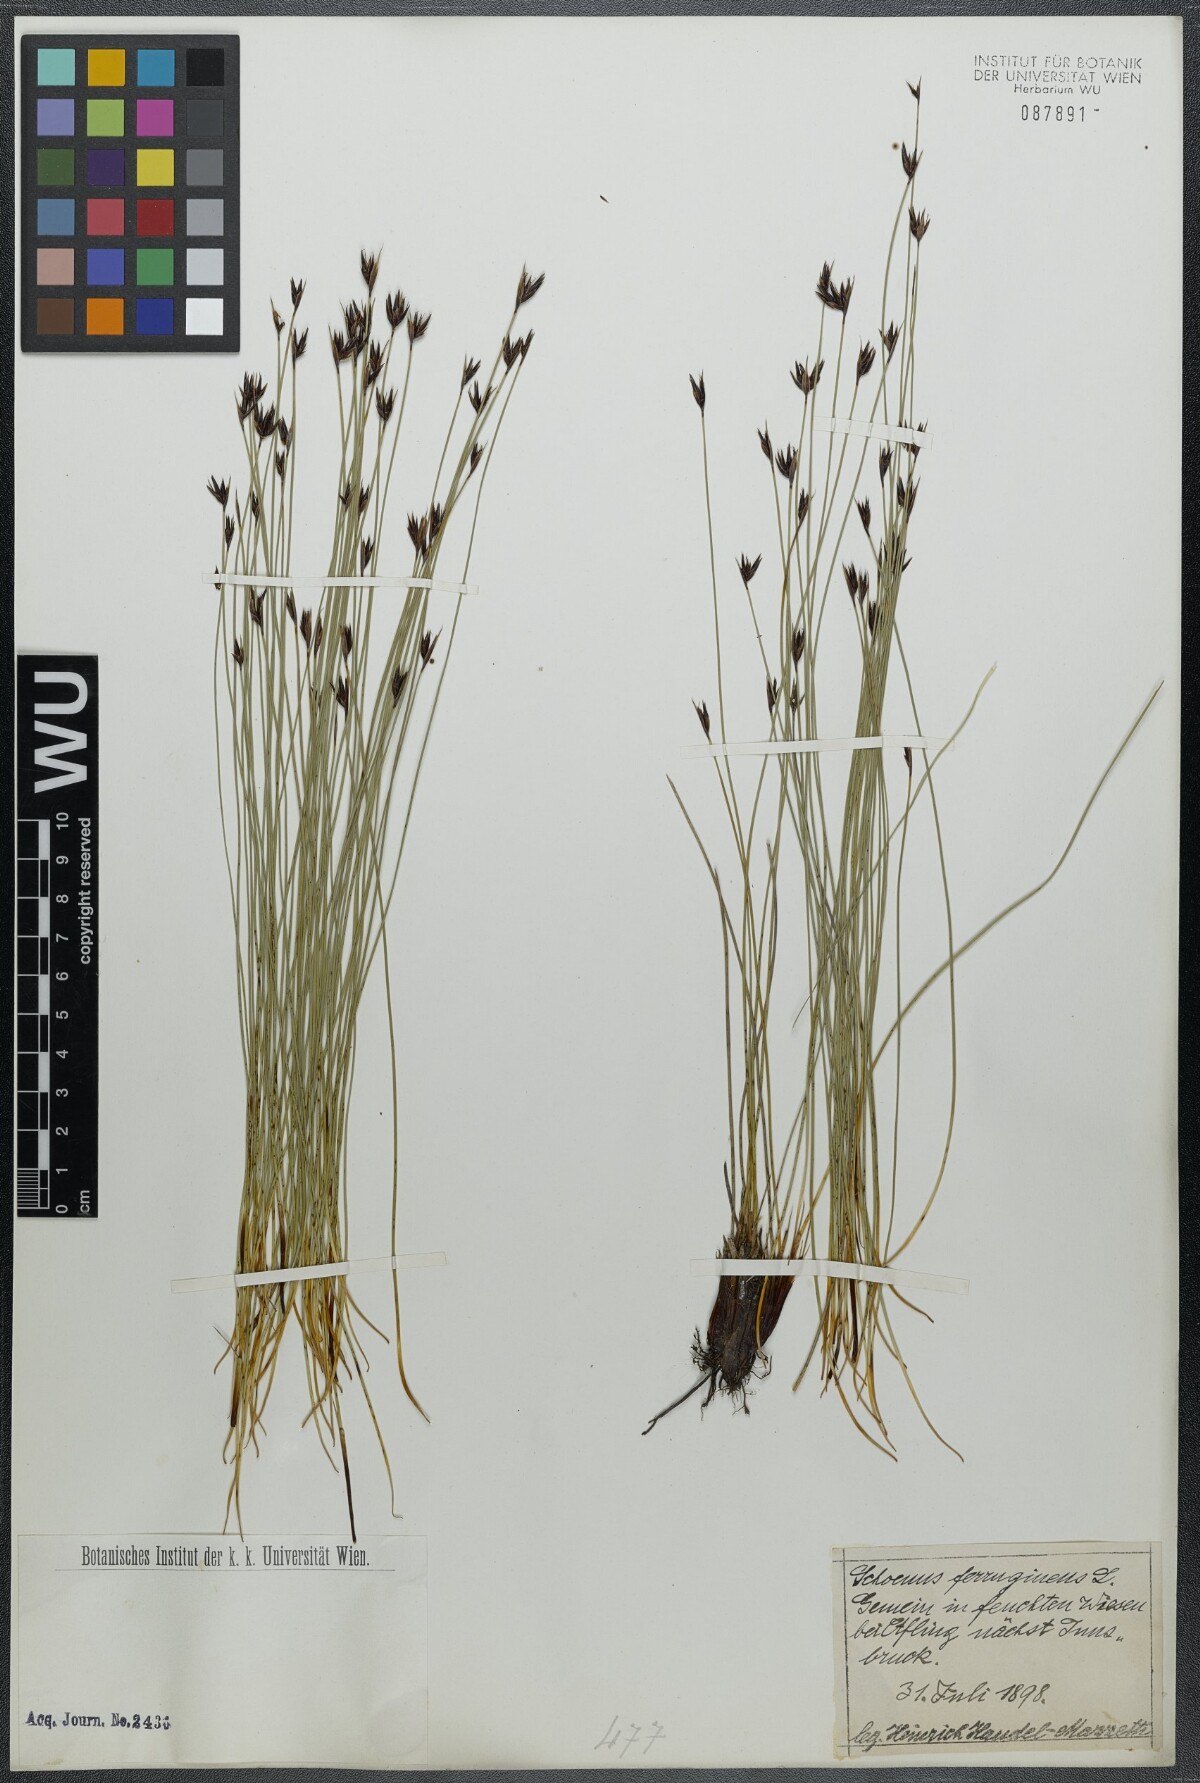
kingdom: Plantae
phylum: Tracheophyta
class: Liliopsida
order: Poales
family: Cyperaceae
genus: Schoenus
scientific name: Schoenus ferrugineus
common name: Brown bog-rush
